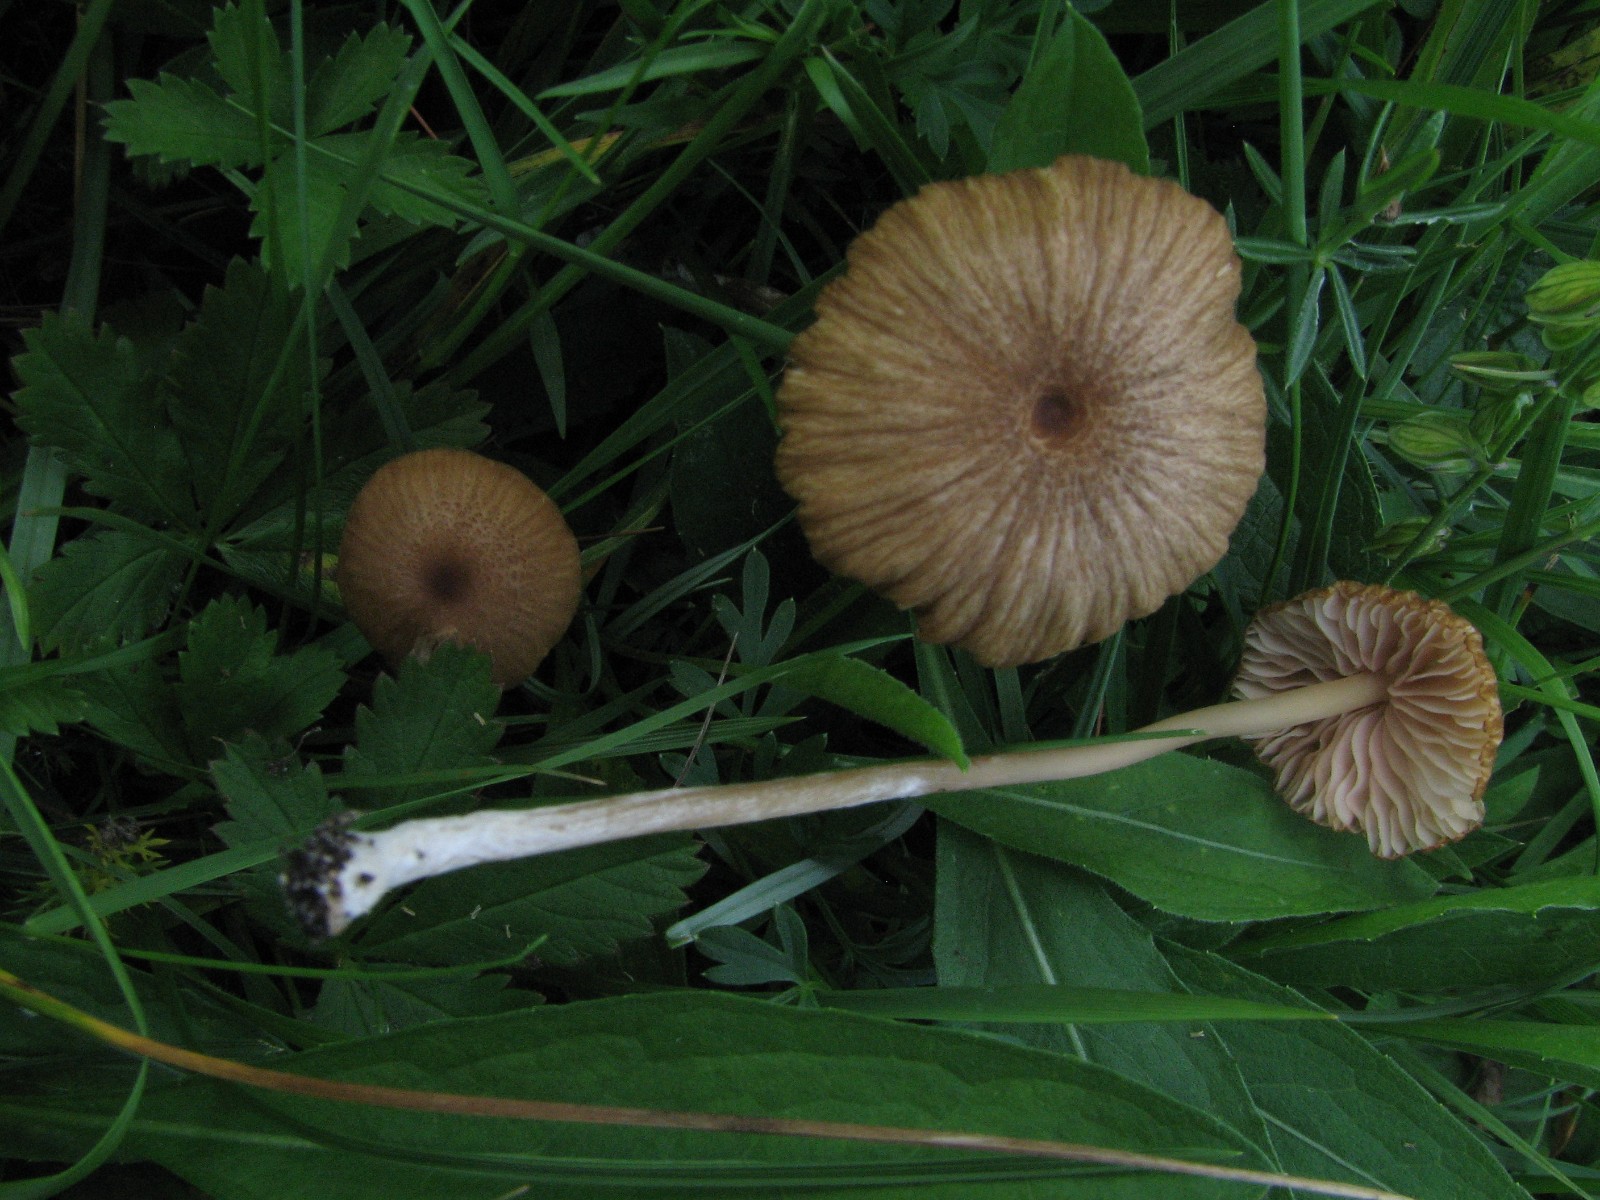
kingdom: Fungi
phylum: Basidiomycota
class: Agaricomycetes
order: Agaricales
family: Entolomataceae
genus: Entoloma
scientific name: Entoloma longistriatum
